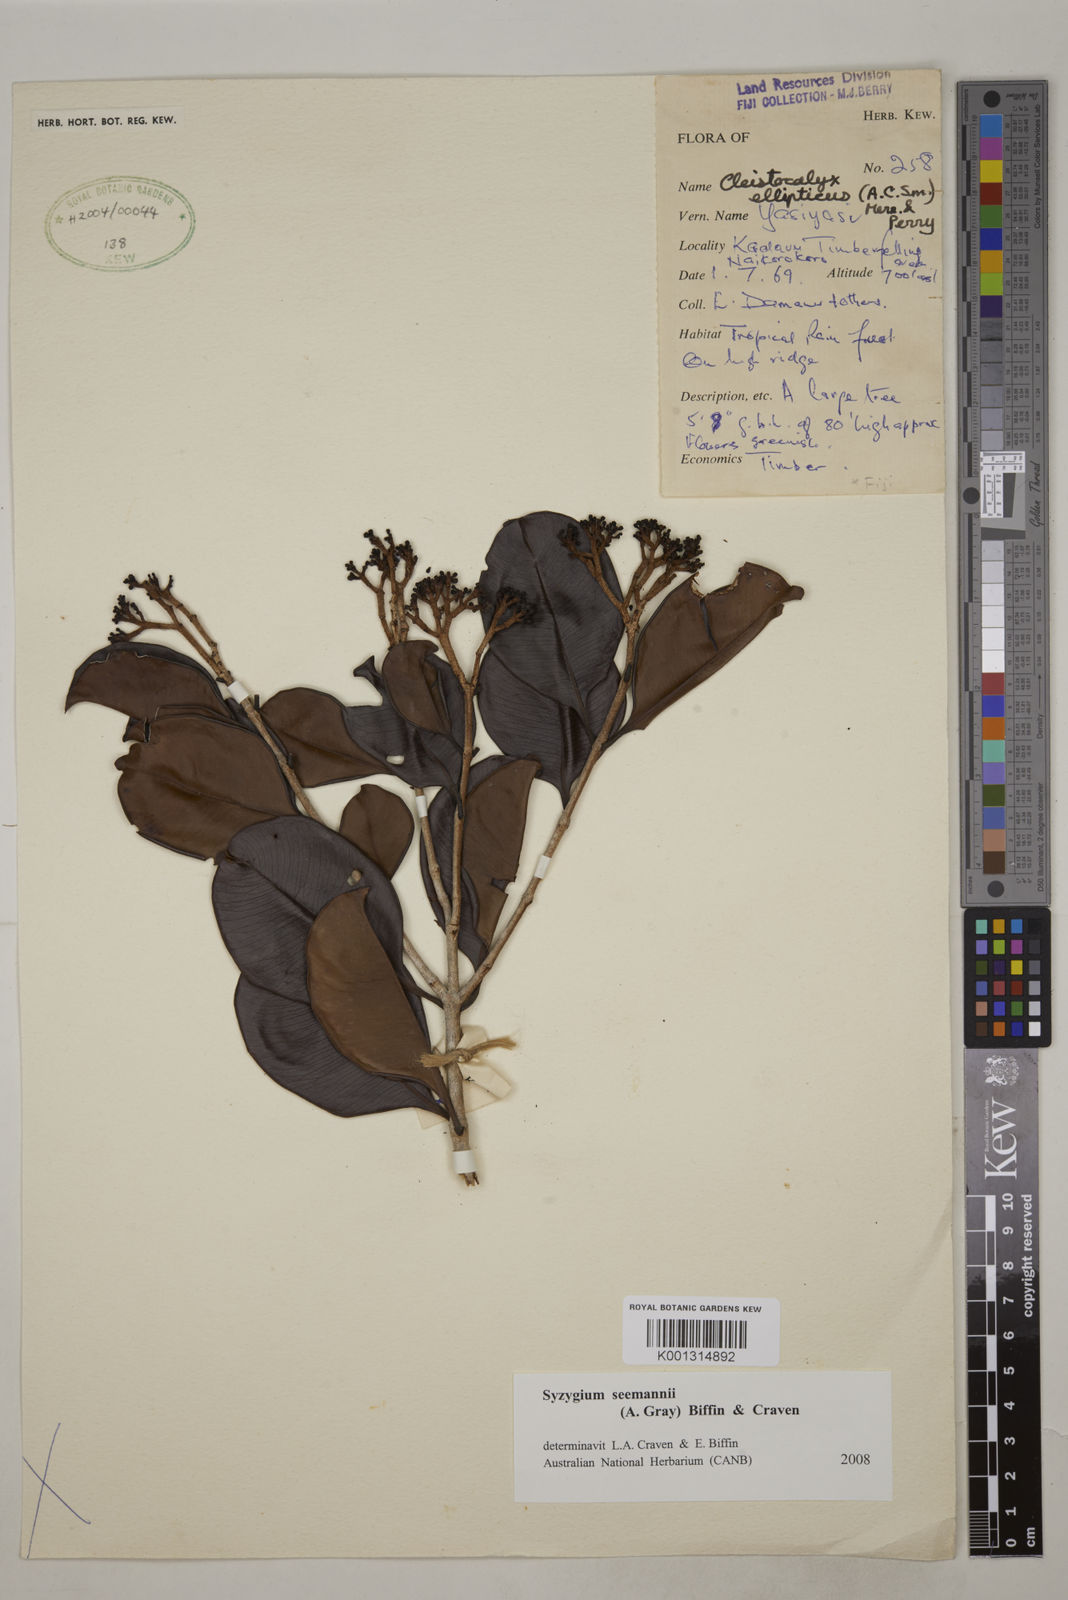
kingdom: Plantae
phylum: Tracheophyta
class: Magnoliopsida
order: Myrtales
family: Myrtaceae
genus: Syzygium
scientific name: Syzygium seemannii
